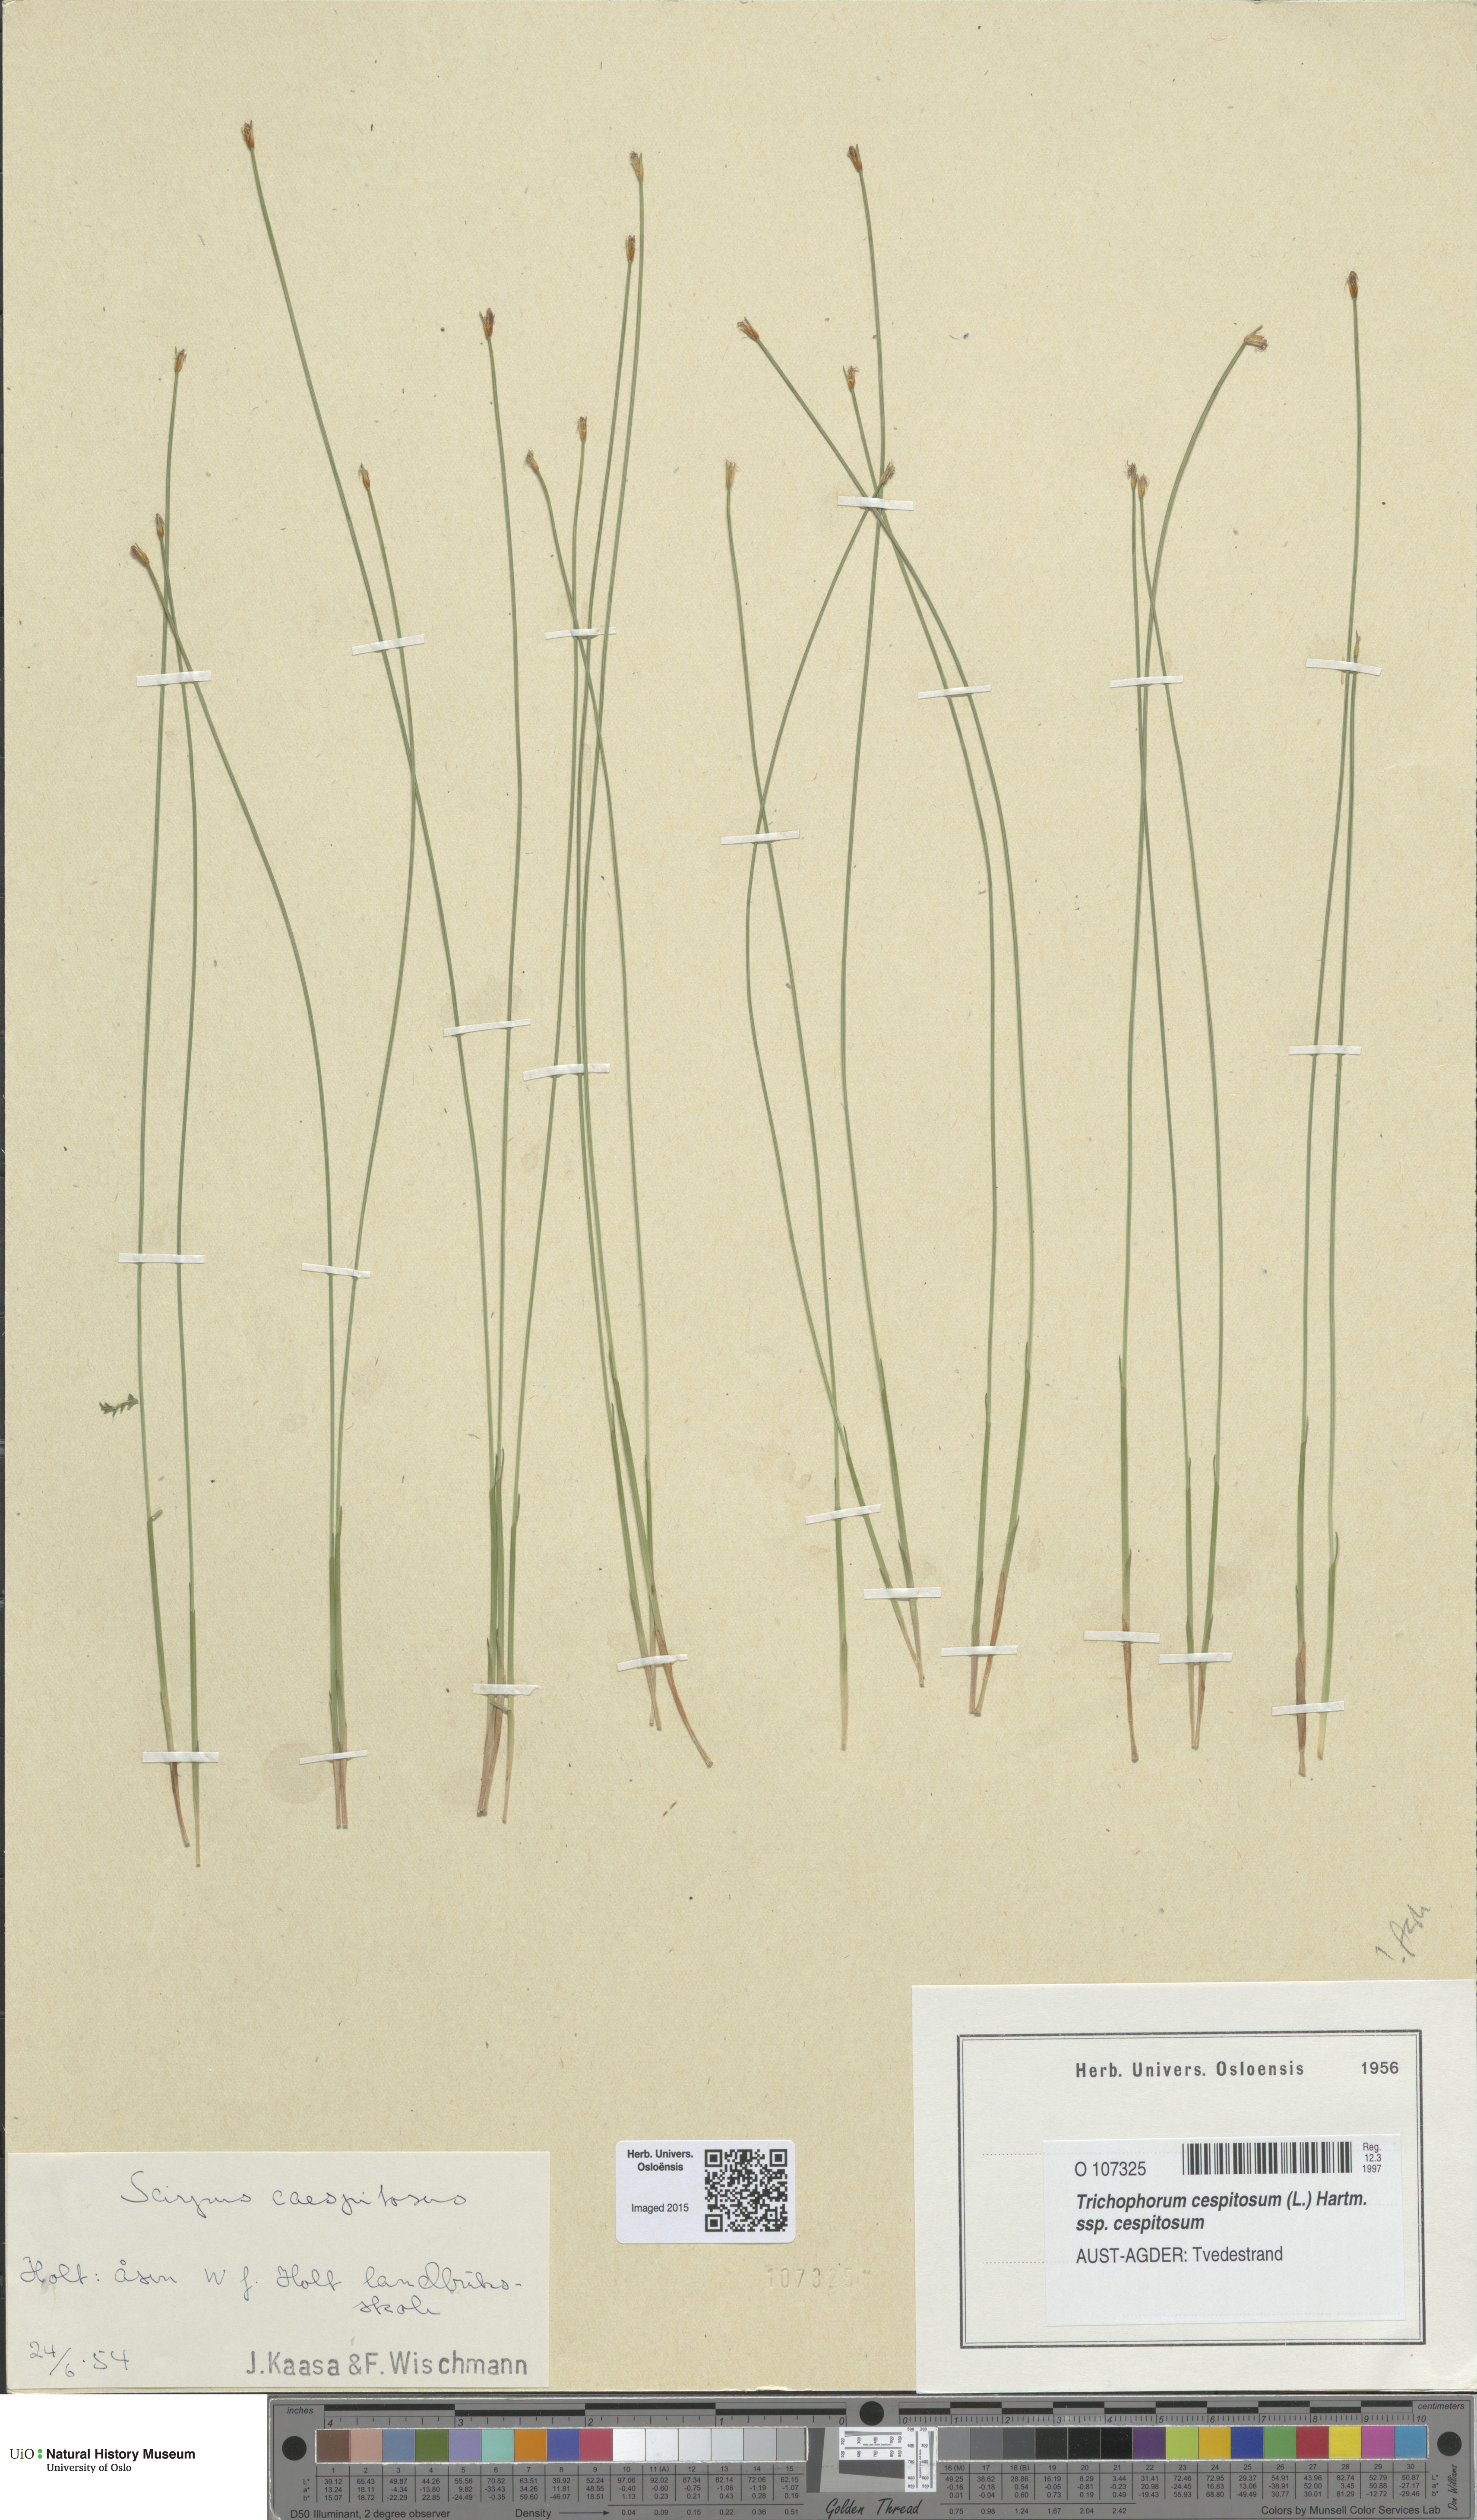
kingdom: Plantae
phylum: Tracheophyta
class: Liliopsida
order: Poales
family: Cyperaceae
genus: Trichophorum
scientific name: Trichophorum cespitosum
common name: Cespitose bulrush
